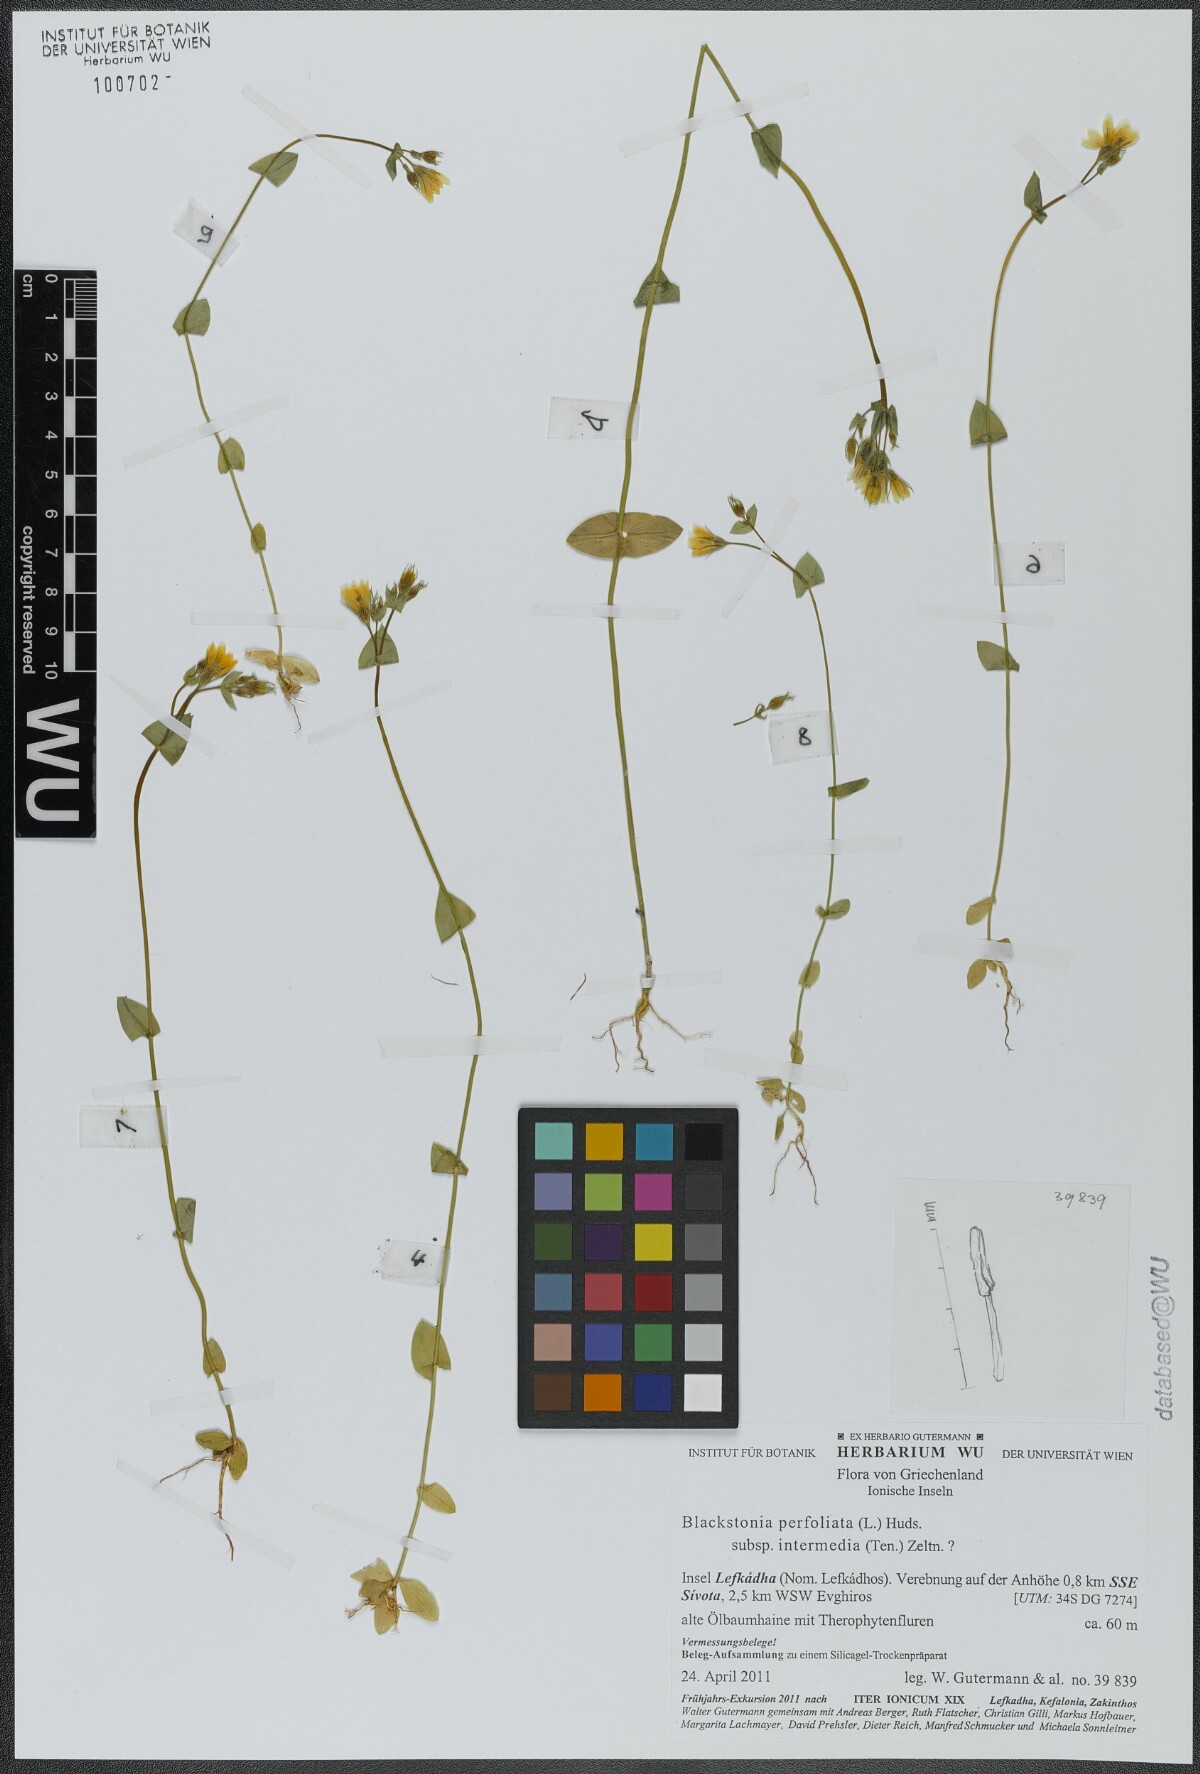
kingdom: Plantae
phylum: Tracheophyta
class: Magnoliopsida
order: Gentianales
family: Gentianaceae
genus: Blackstonia
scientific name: Blackstonia perfoliata
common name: Yellow-wort
